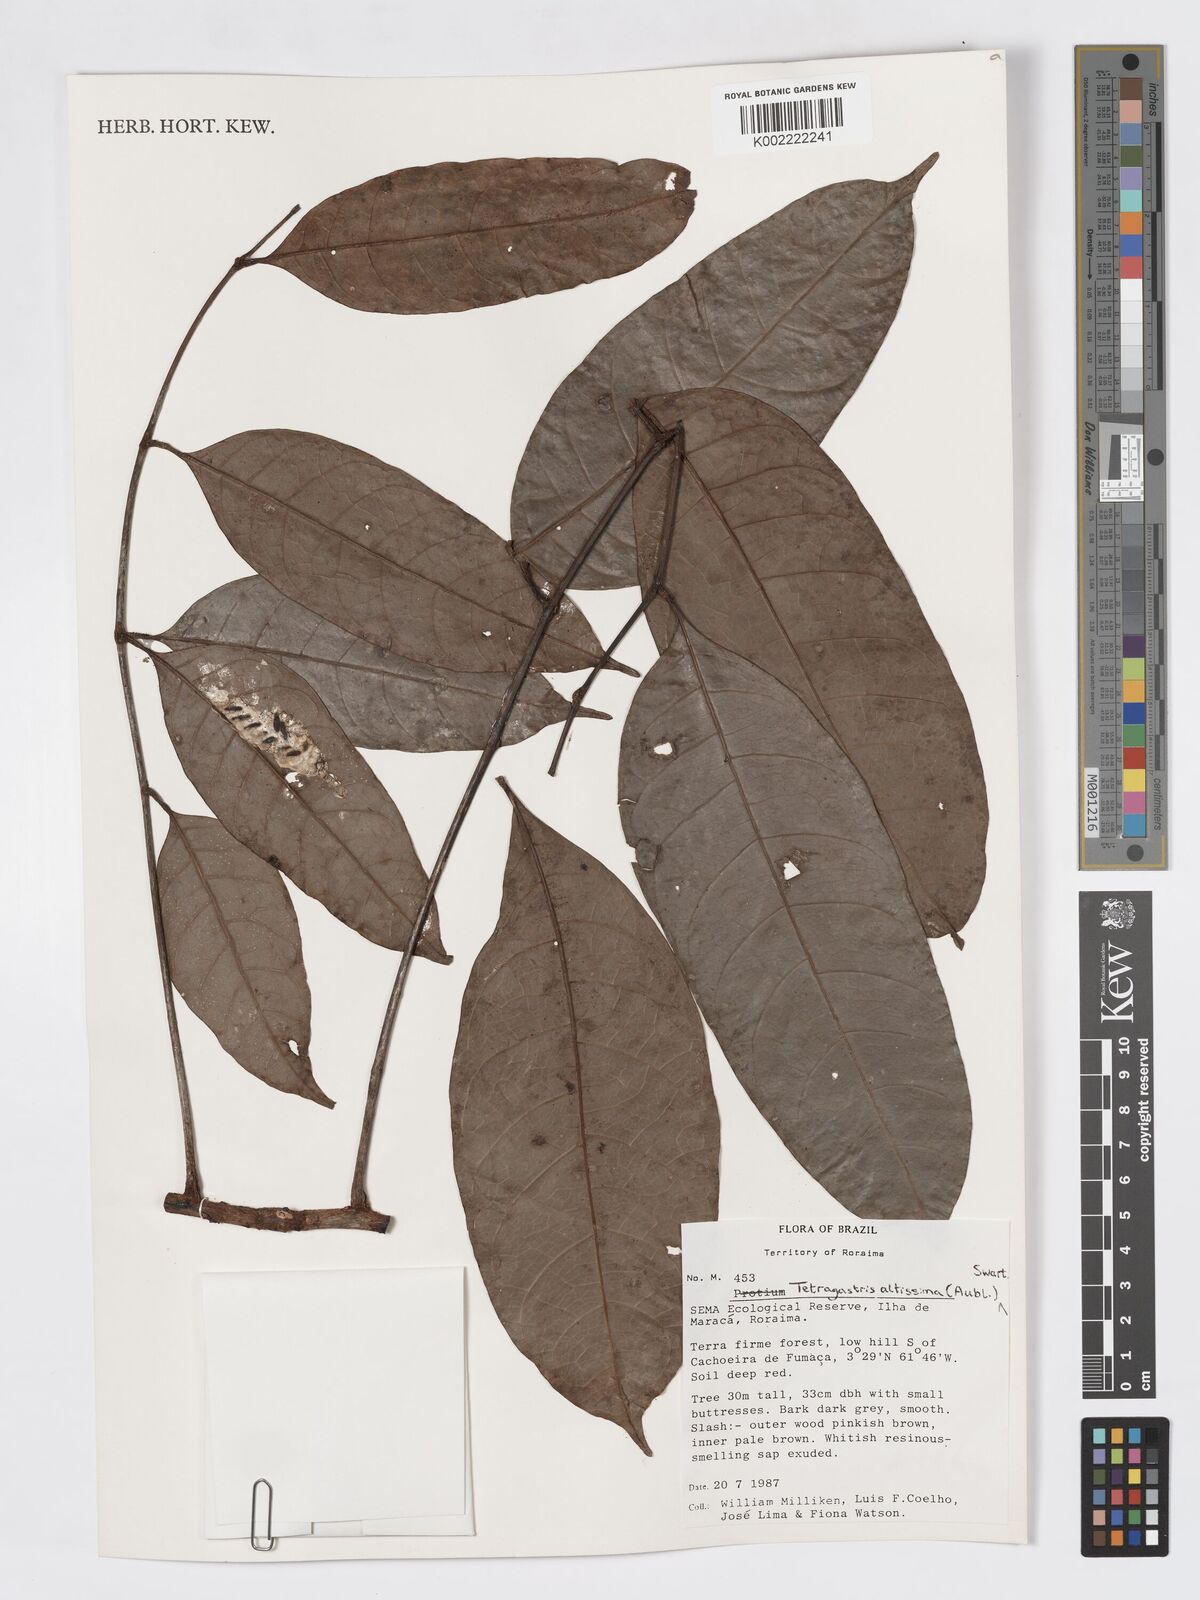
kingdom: Plantae
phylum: Tracheophyta
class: Magnoliopsida
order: Sapindales
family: Burseraceae
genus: Tetragastris
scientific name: Tetragastris altissima
